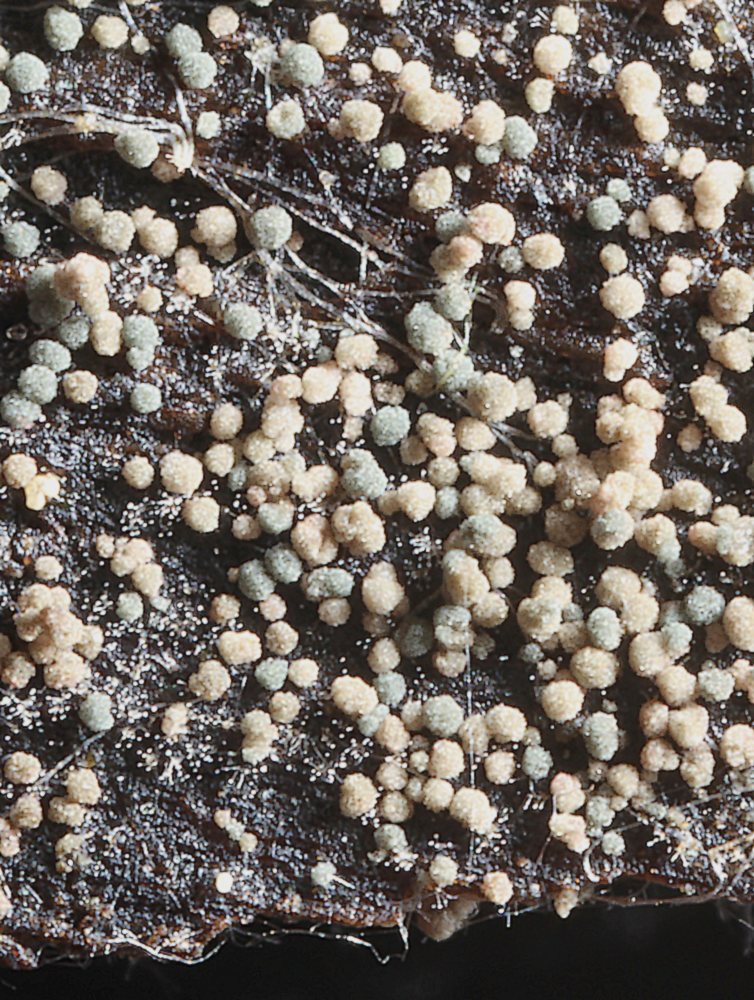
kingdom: Fungi
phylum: Ascomycota
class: Leotiomycetes
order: Helotiales
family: Hyaloscyphaceae
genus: Pseudaegerita
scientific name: Pseudaegerita
